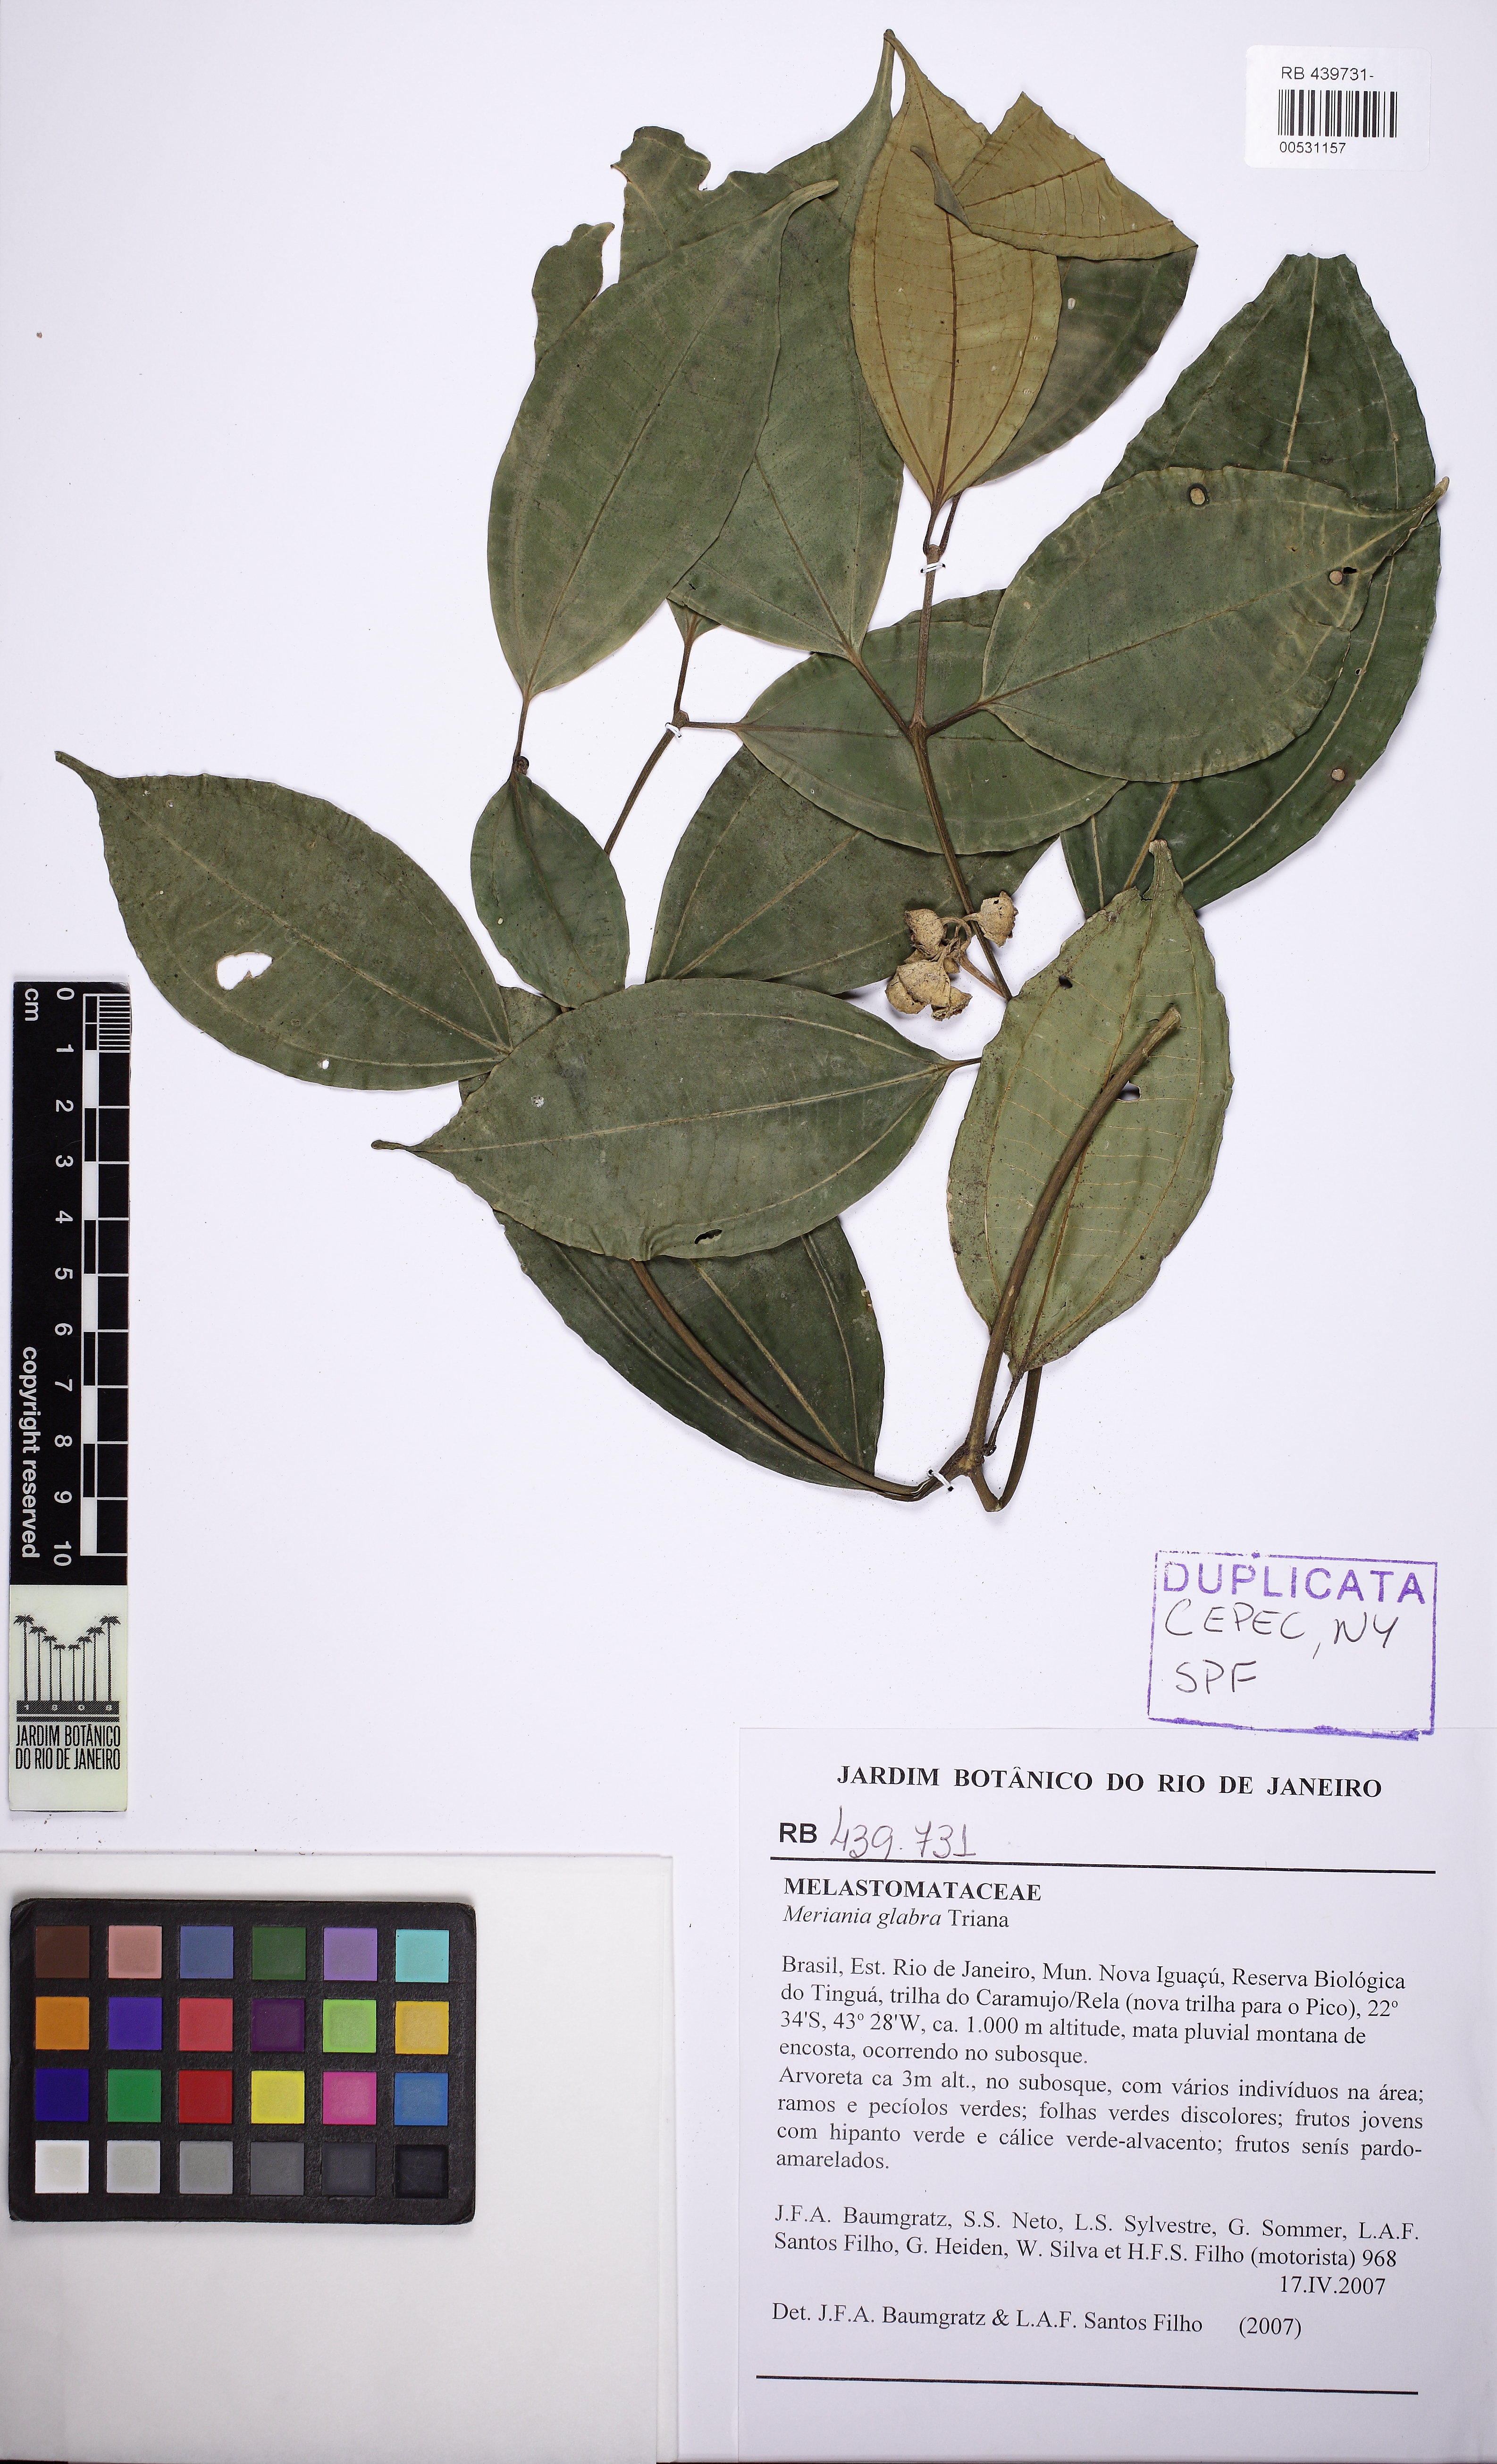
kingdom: Plantae
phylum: Tracheophyta
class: Magnoliopsida
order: Myrtales
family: Melastomataceae
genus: Meriania
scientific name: Meriania glabra
